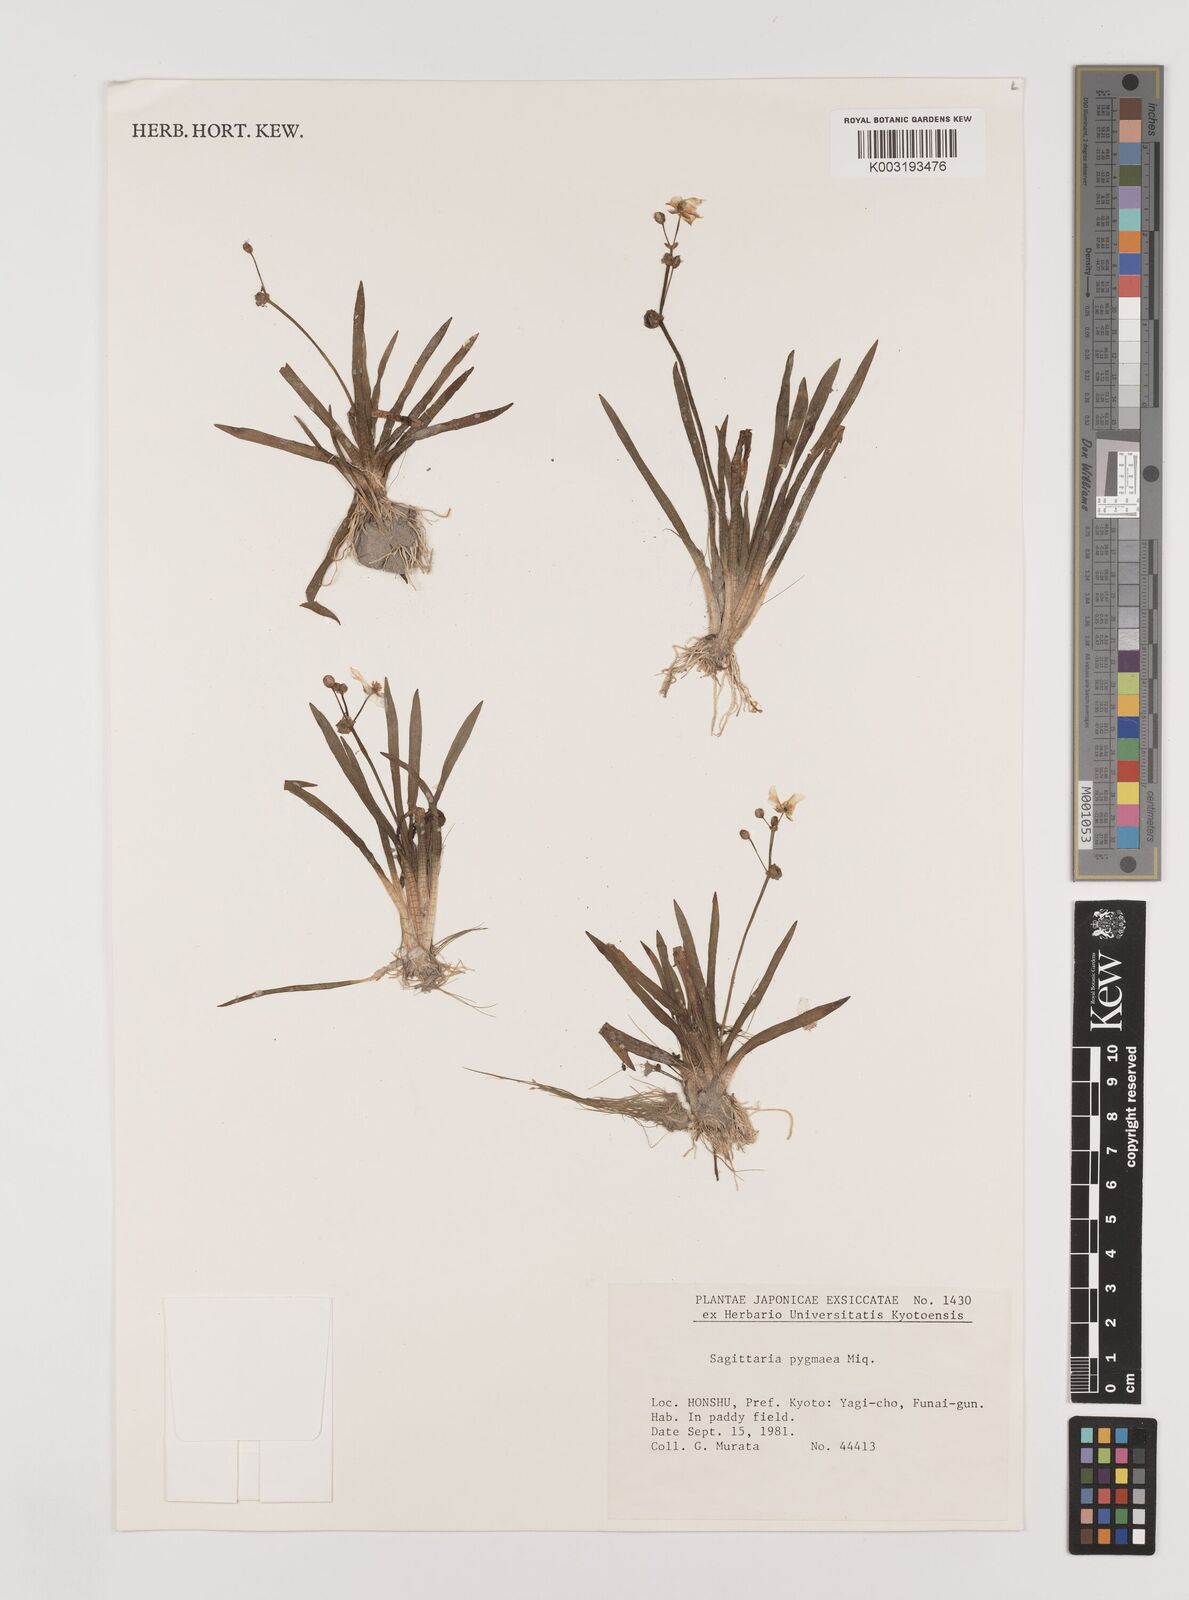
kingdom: Plantae
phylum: Tracheophyta
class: Liliopsida
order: Alismatales
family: Alismataceae
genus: Sagittaria
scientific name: Sagittaria pygmaea
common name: Pygmy arrowhead
